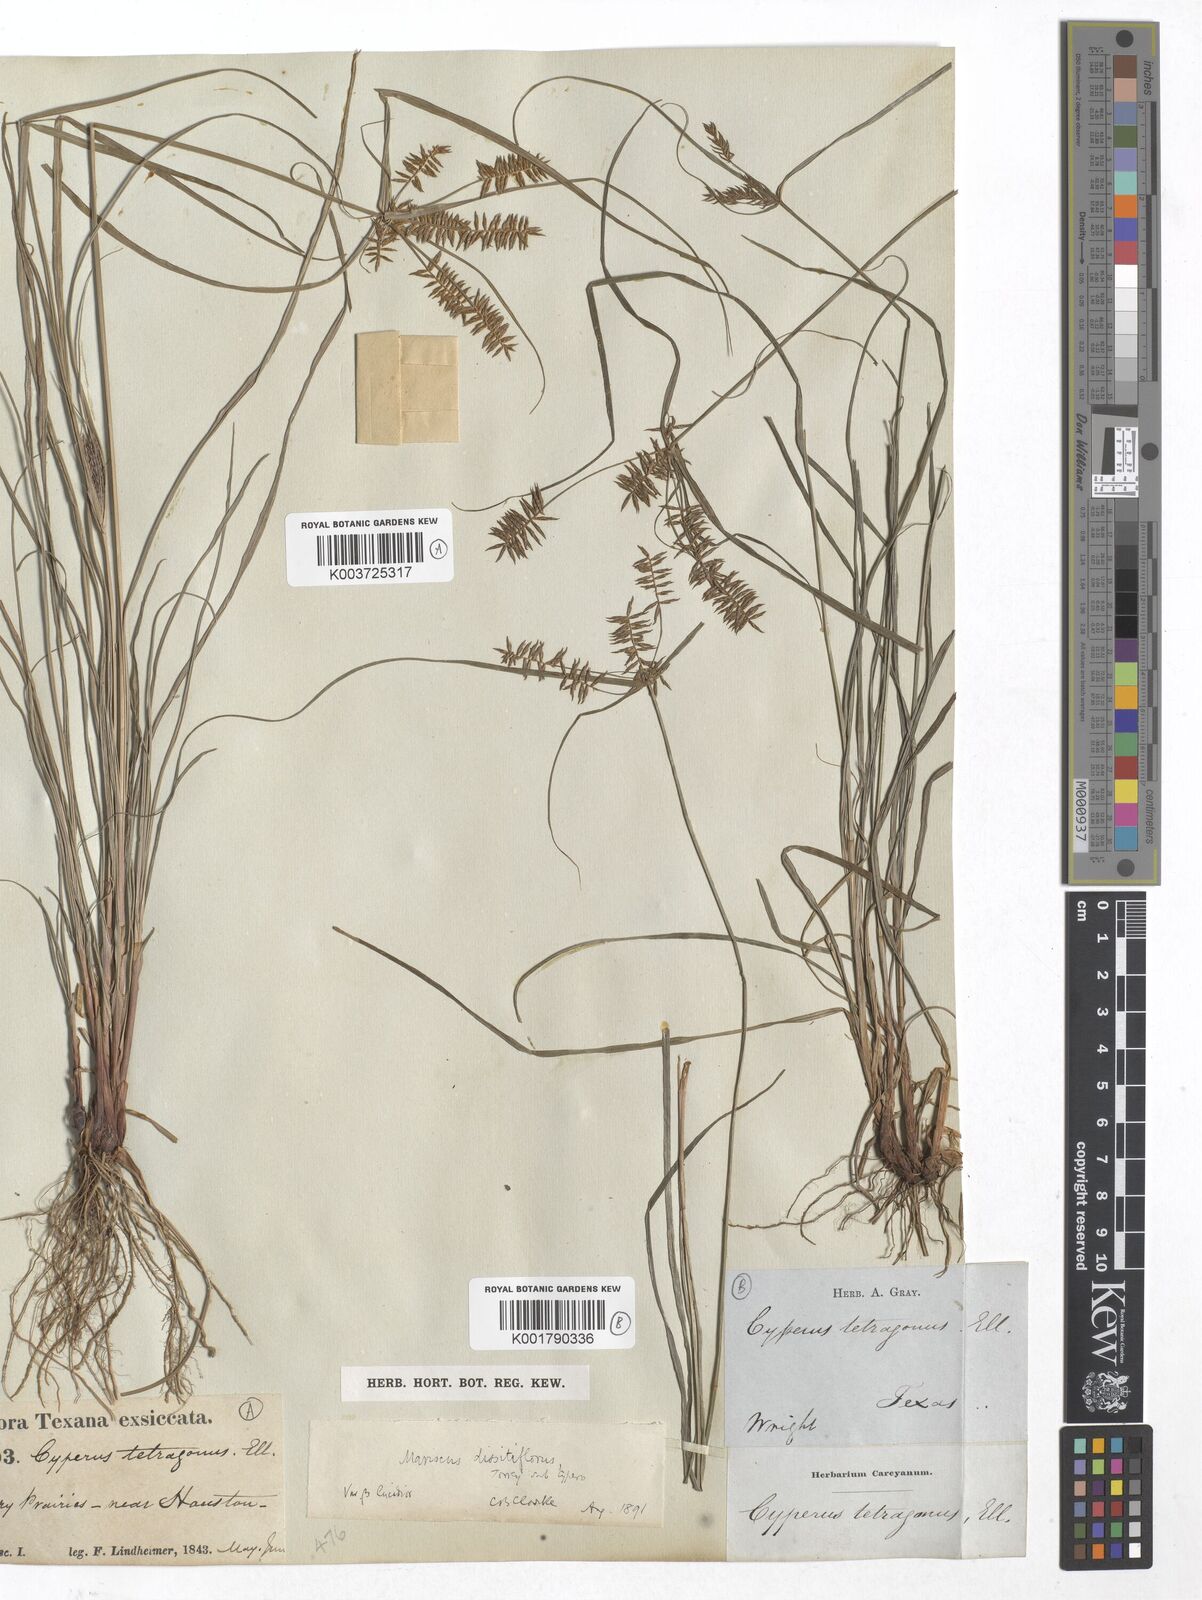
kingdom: Plantae
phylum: Tracheophyta
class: Liliopsida
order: Poales
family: Cyperaceae
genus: Cyperus
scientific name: Cyperus thyrsiflorus
